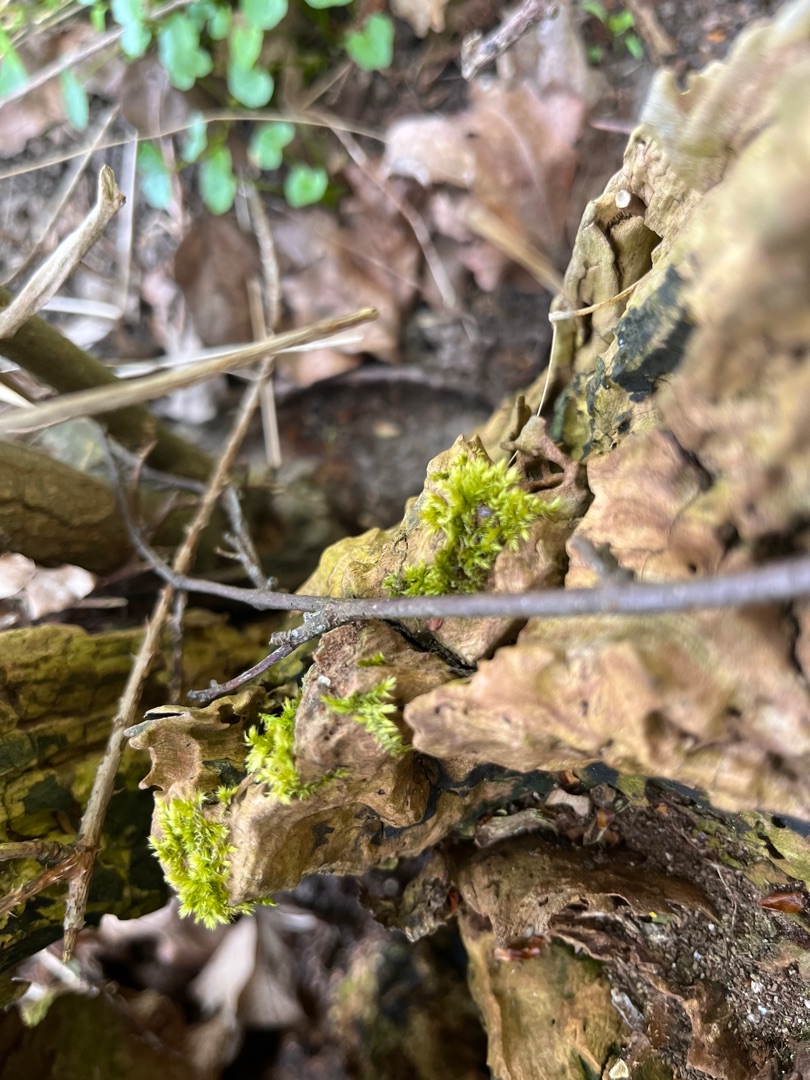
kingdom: Plantae
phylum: Bryophyta
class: Bryopsida
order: Hypnales
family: Brachytheciaceae
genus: Brachythecium
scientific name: Brachythecium rutabulum
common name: Almindelig kortkapsel
